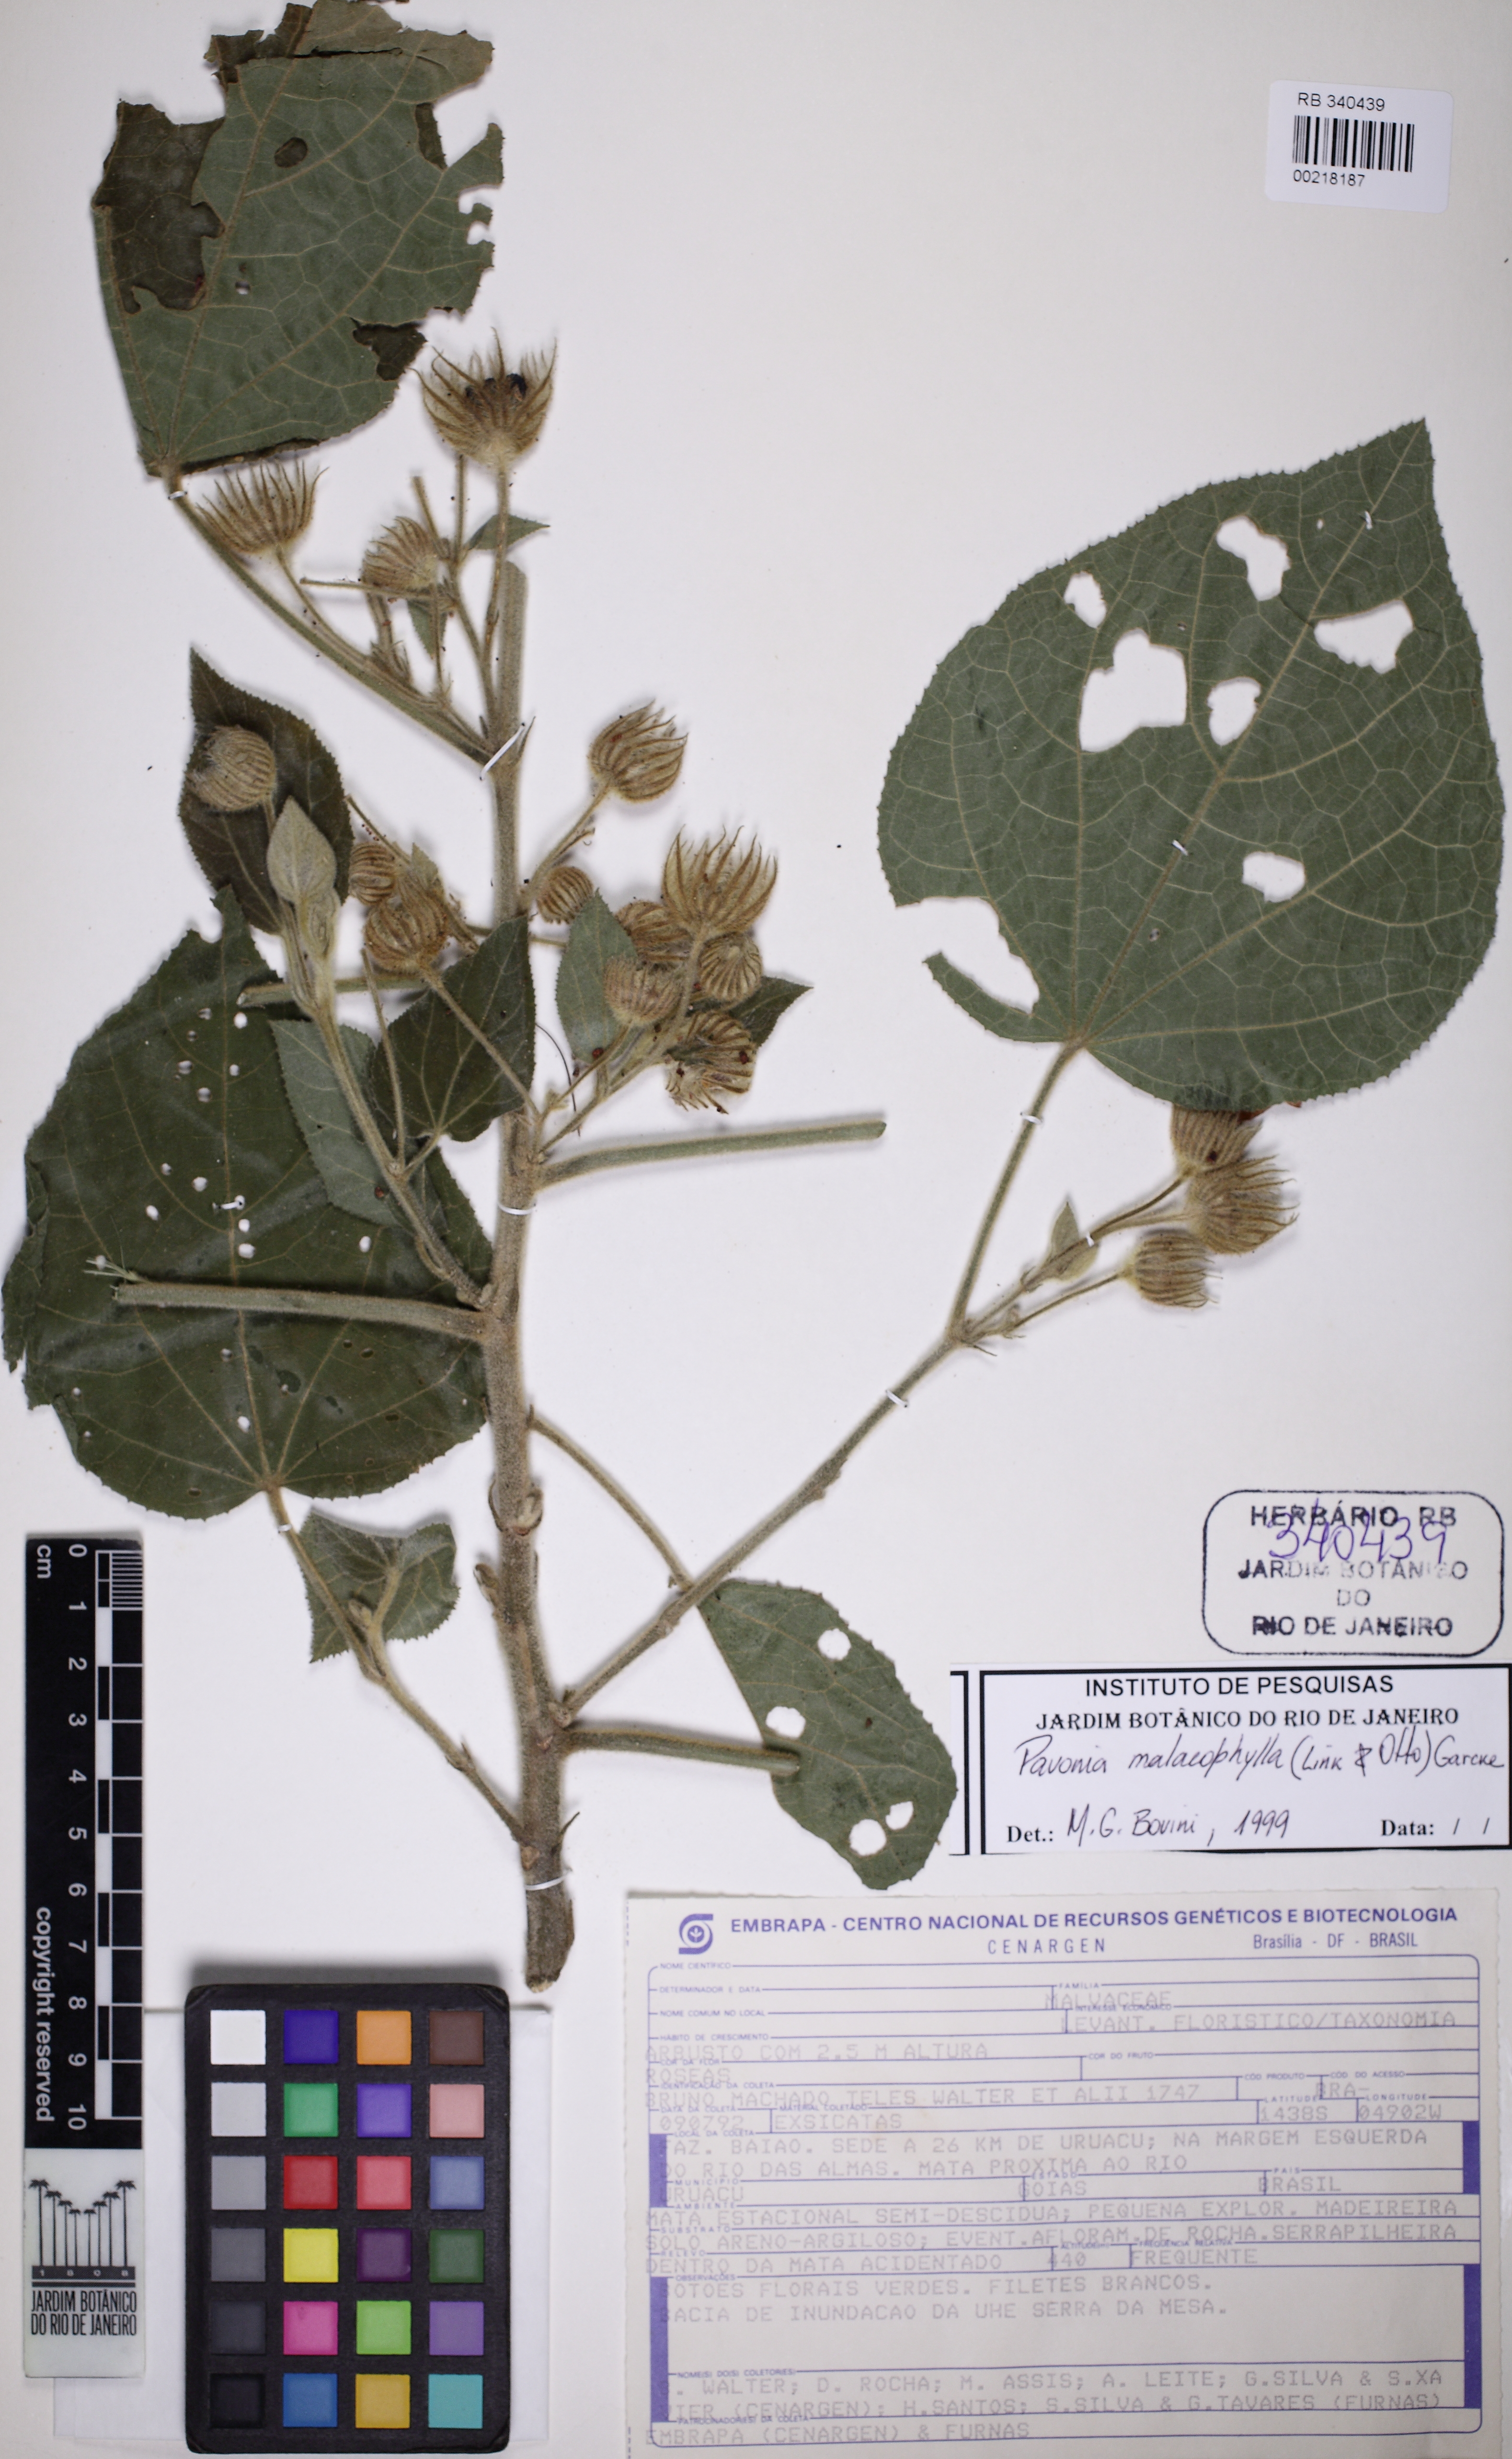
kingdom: Plantae
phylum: Tracheophyta
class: Magnoliopsida
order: Malvales
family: Malvaceae
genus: Pavonia
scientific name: Pavonia malacophylla
